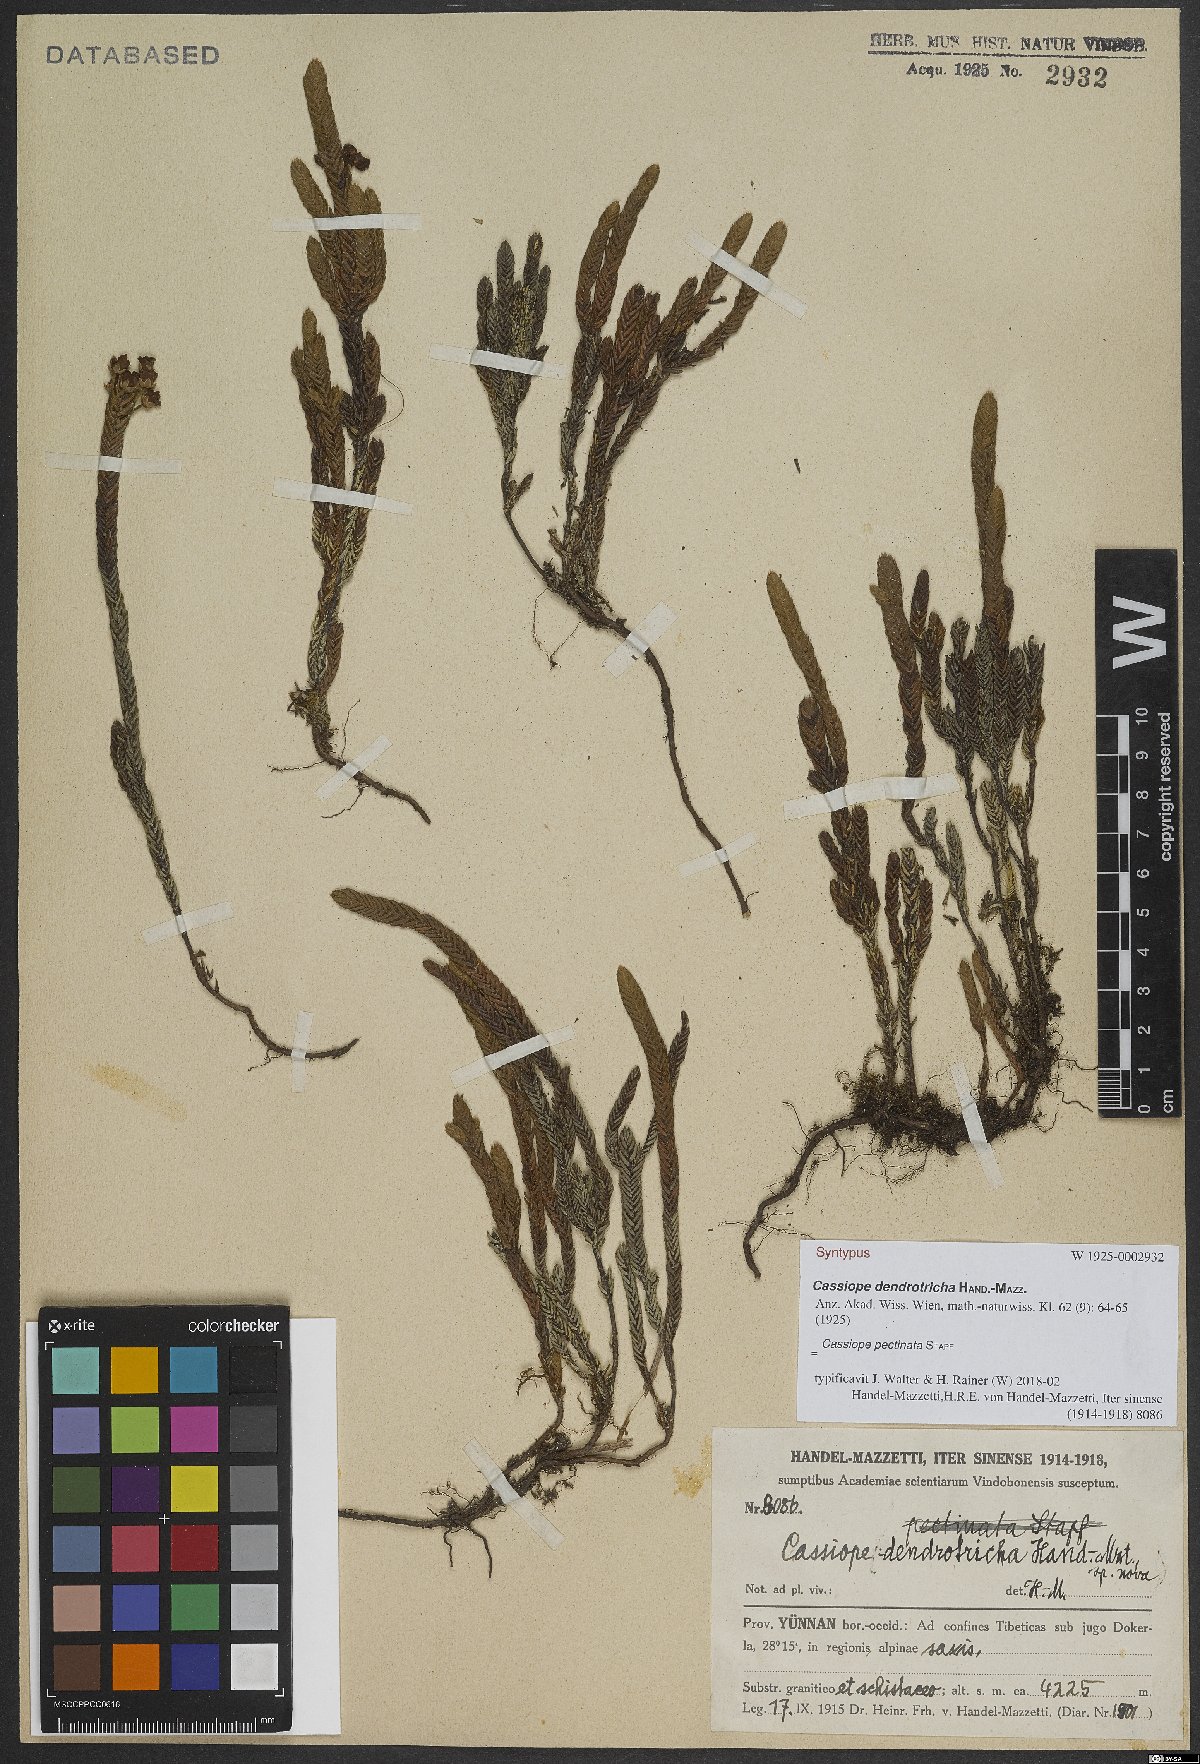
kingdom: Plantae
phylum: Tracheophyta
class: Magnoliopsida
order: Ericales
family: Ericaceae
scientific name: Ericaceae
